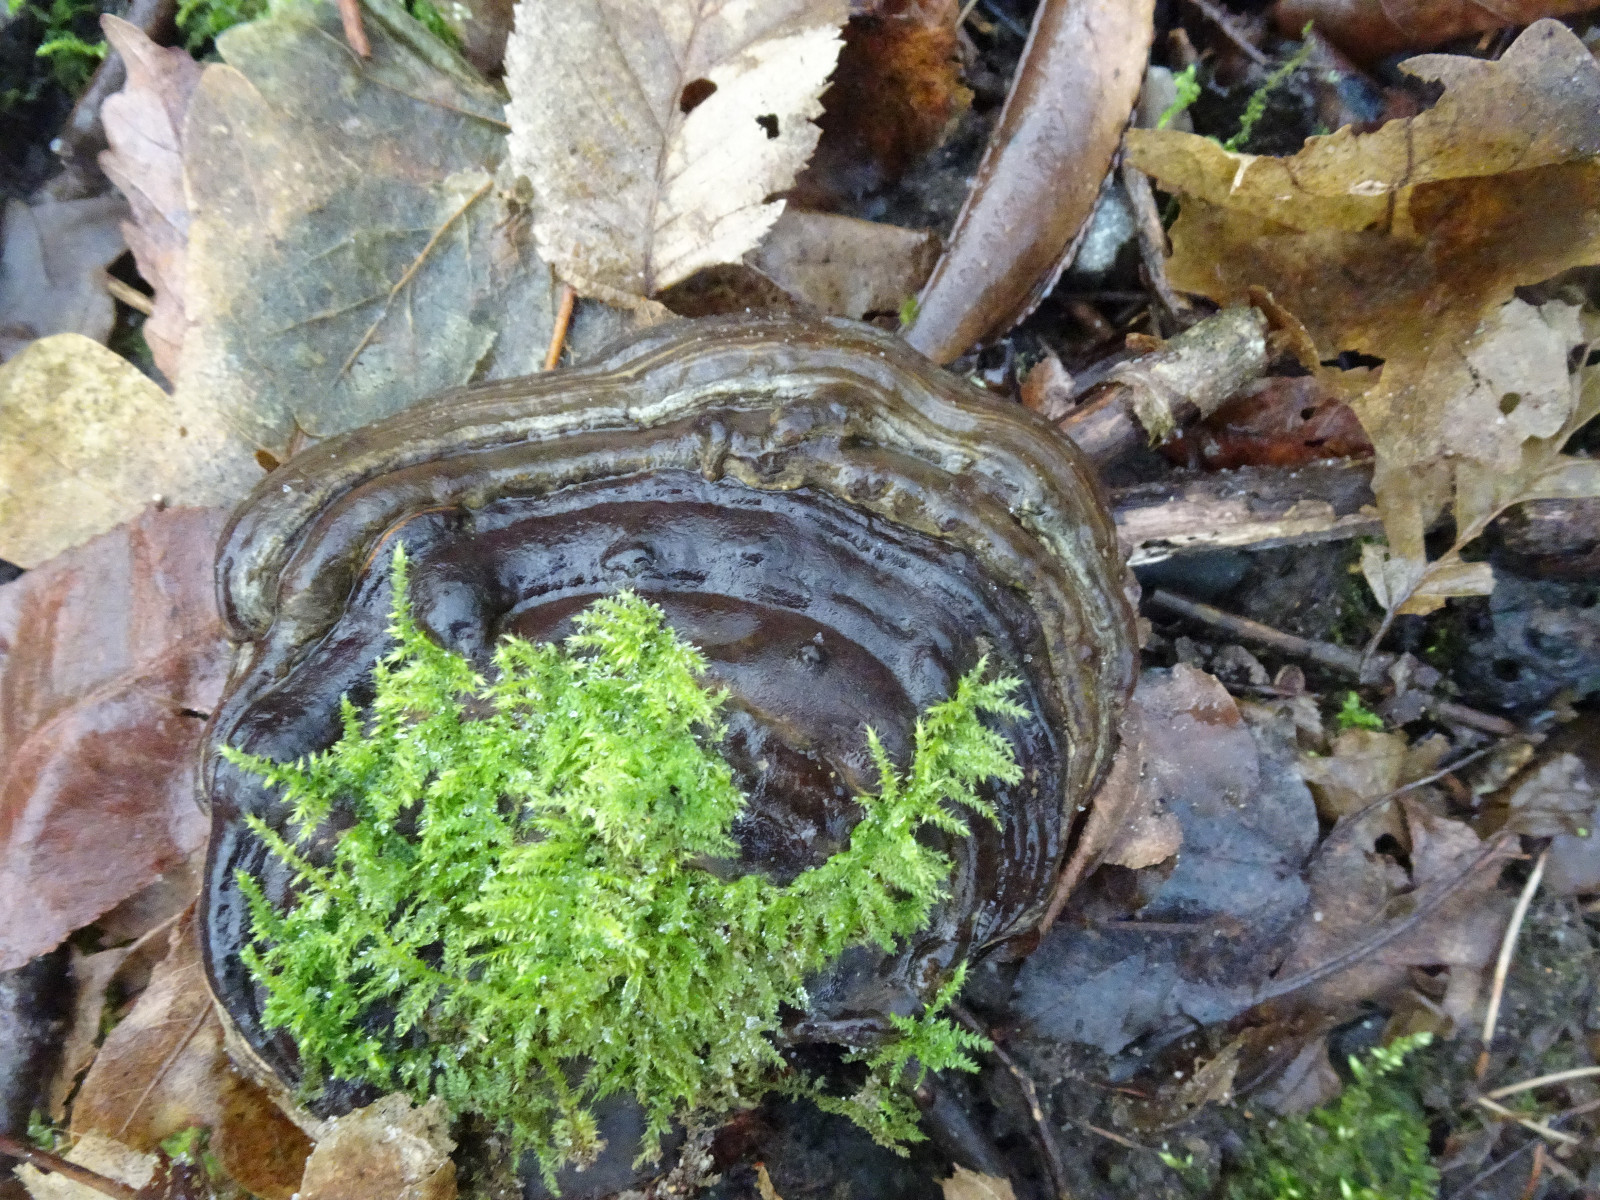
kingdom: Fungi
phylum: Basidiomycota
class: Agaricomycetes
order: Polyporales
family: Polyporaceae
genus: Ganoderma
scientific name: Ganoderma applanatum
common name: flad lakporesvamp
